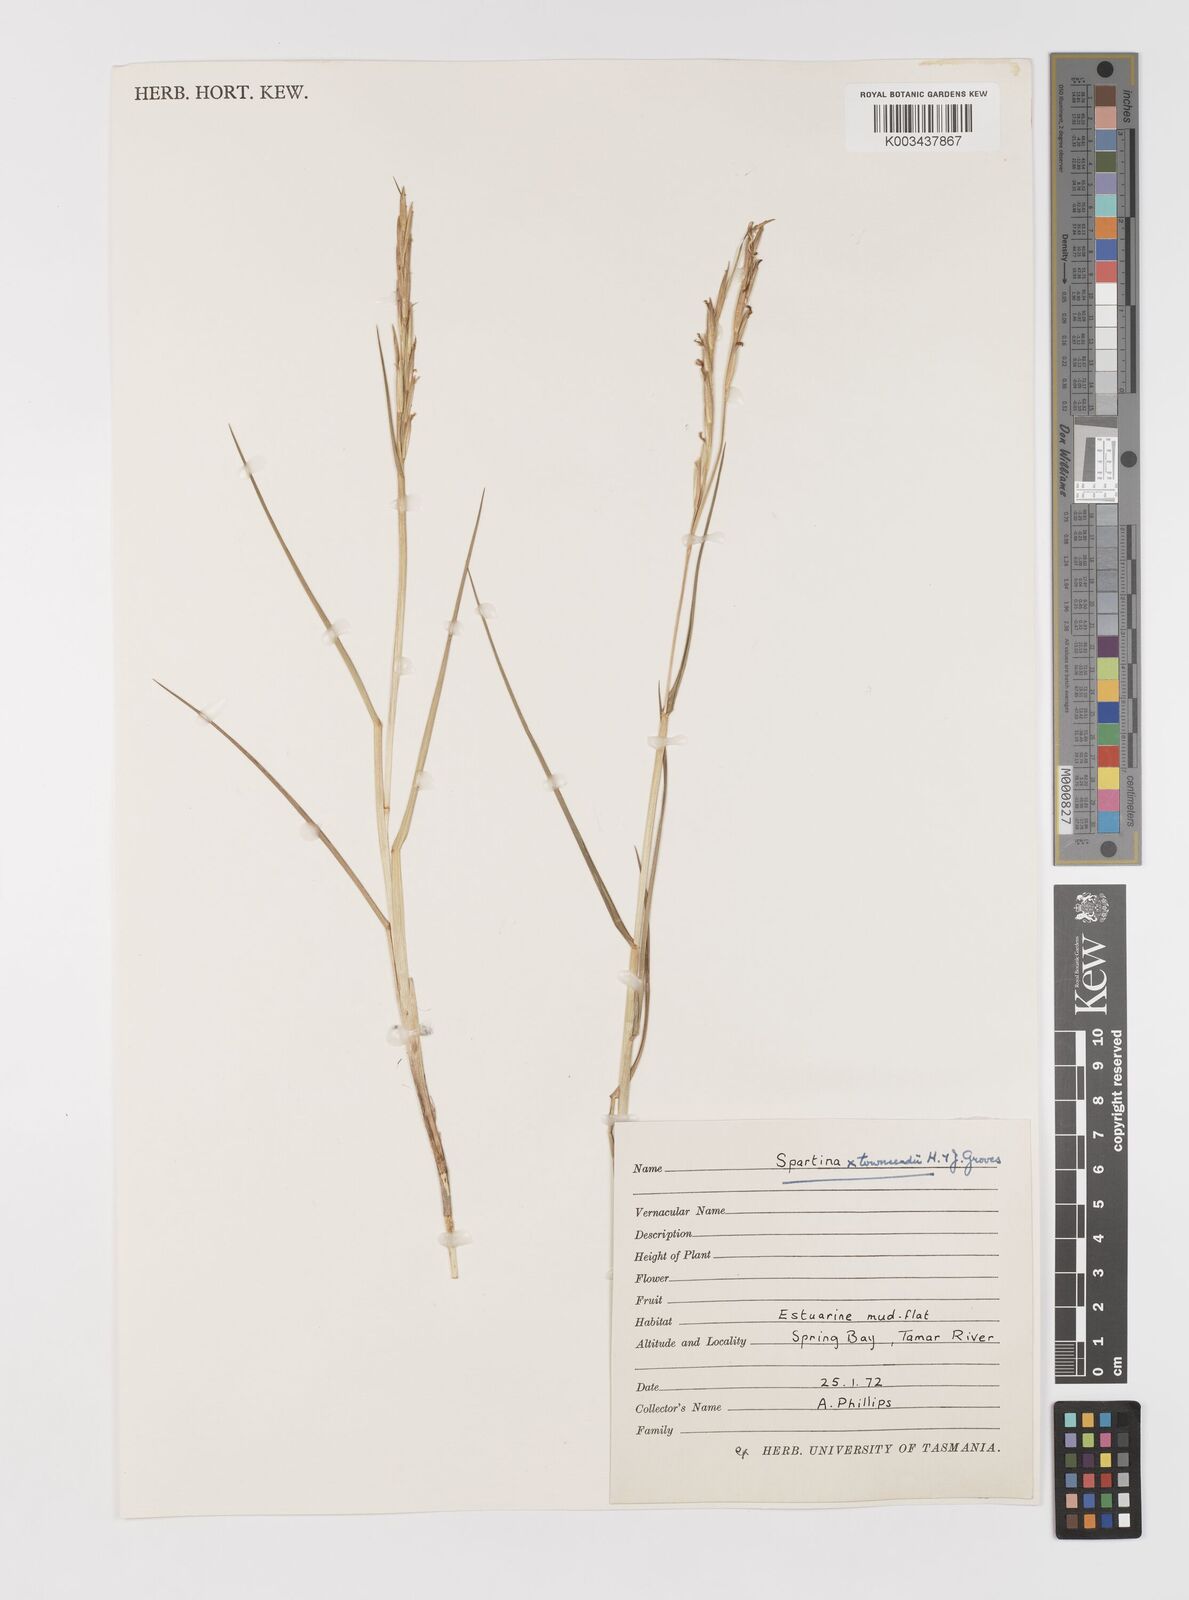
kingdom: Plantae
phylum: Tracheophyta
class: Liliopsida
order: Poales
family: Poaceae
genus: Sporobolus
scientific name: Sporobolus townsendii
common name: Townsend's cordgrass
